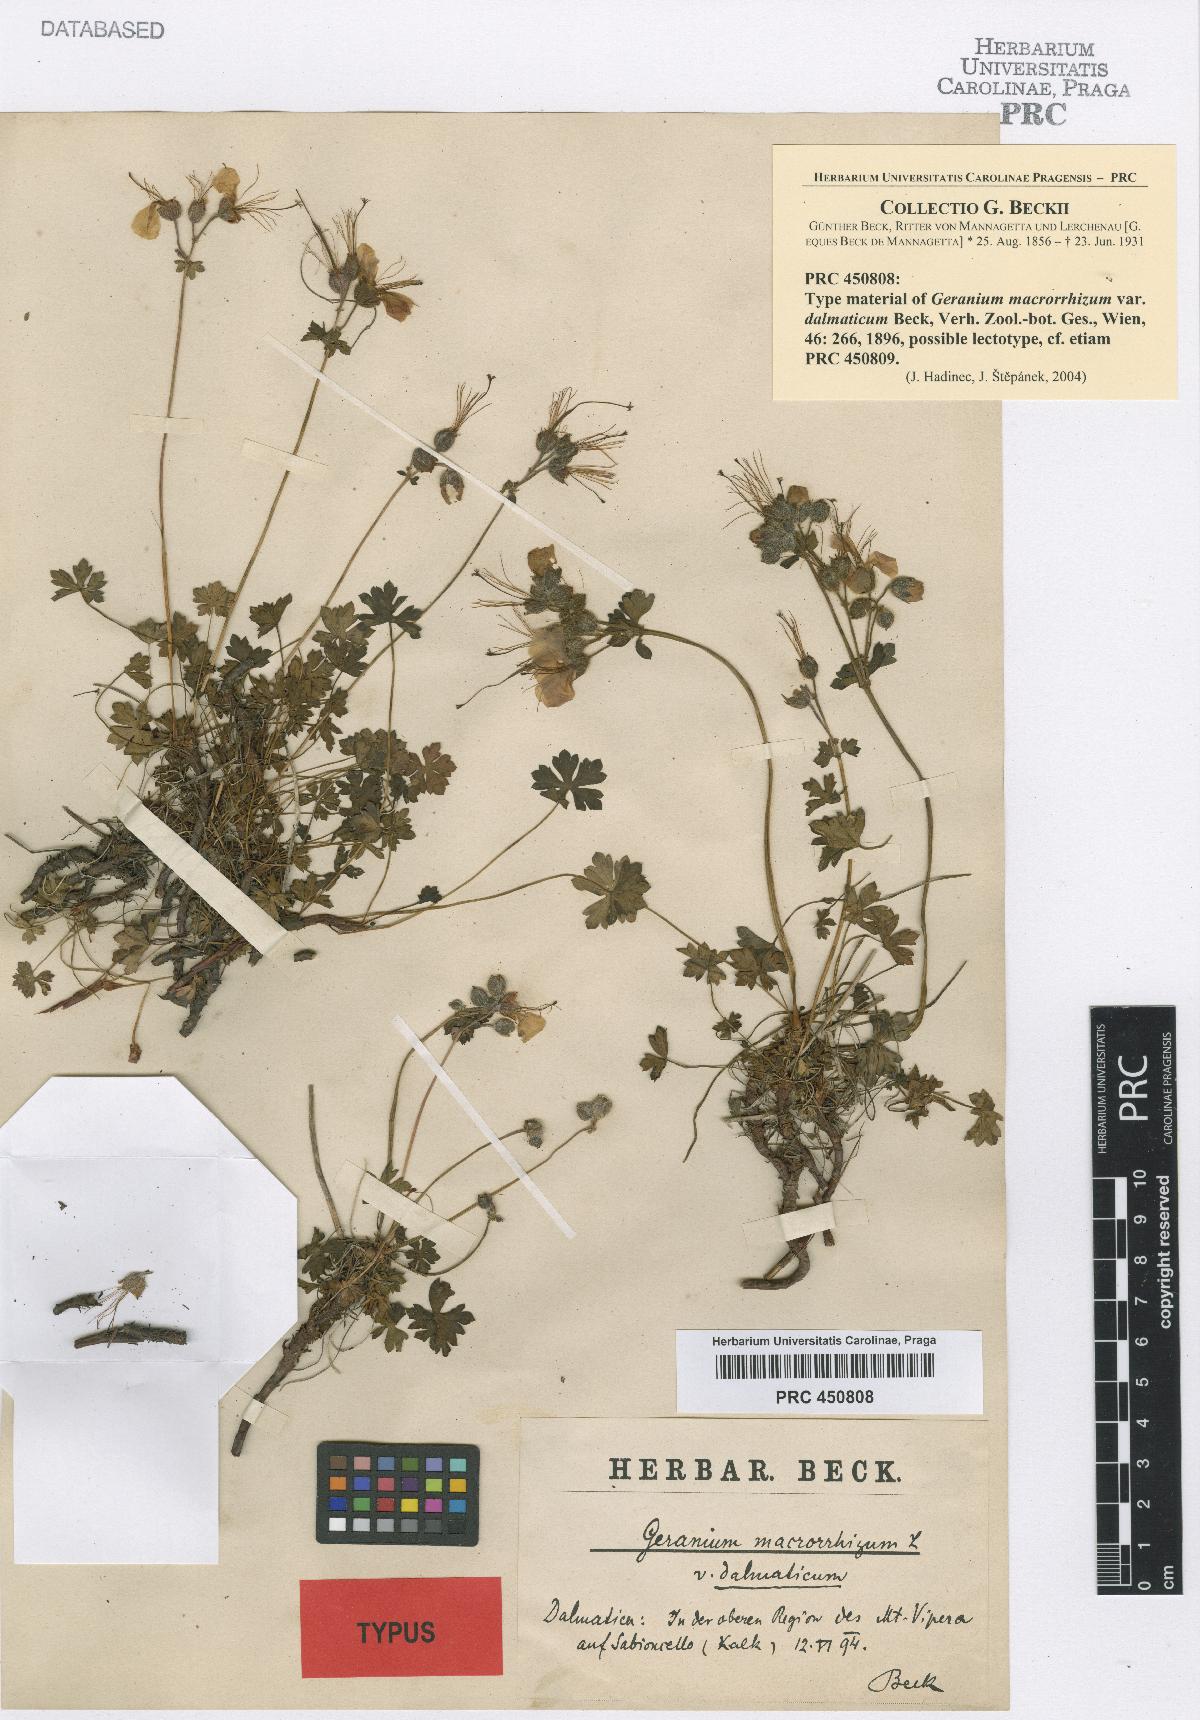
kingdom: Plantae
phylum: Tracheophyta
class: Magnoliopsida
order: Geraniales
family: Geraniaceae
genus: Geranium
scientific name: Geranium dalmaticum
